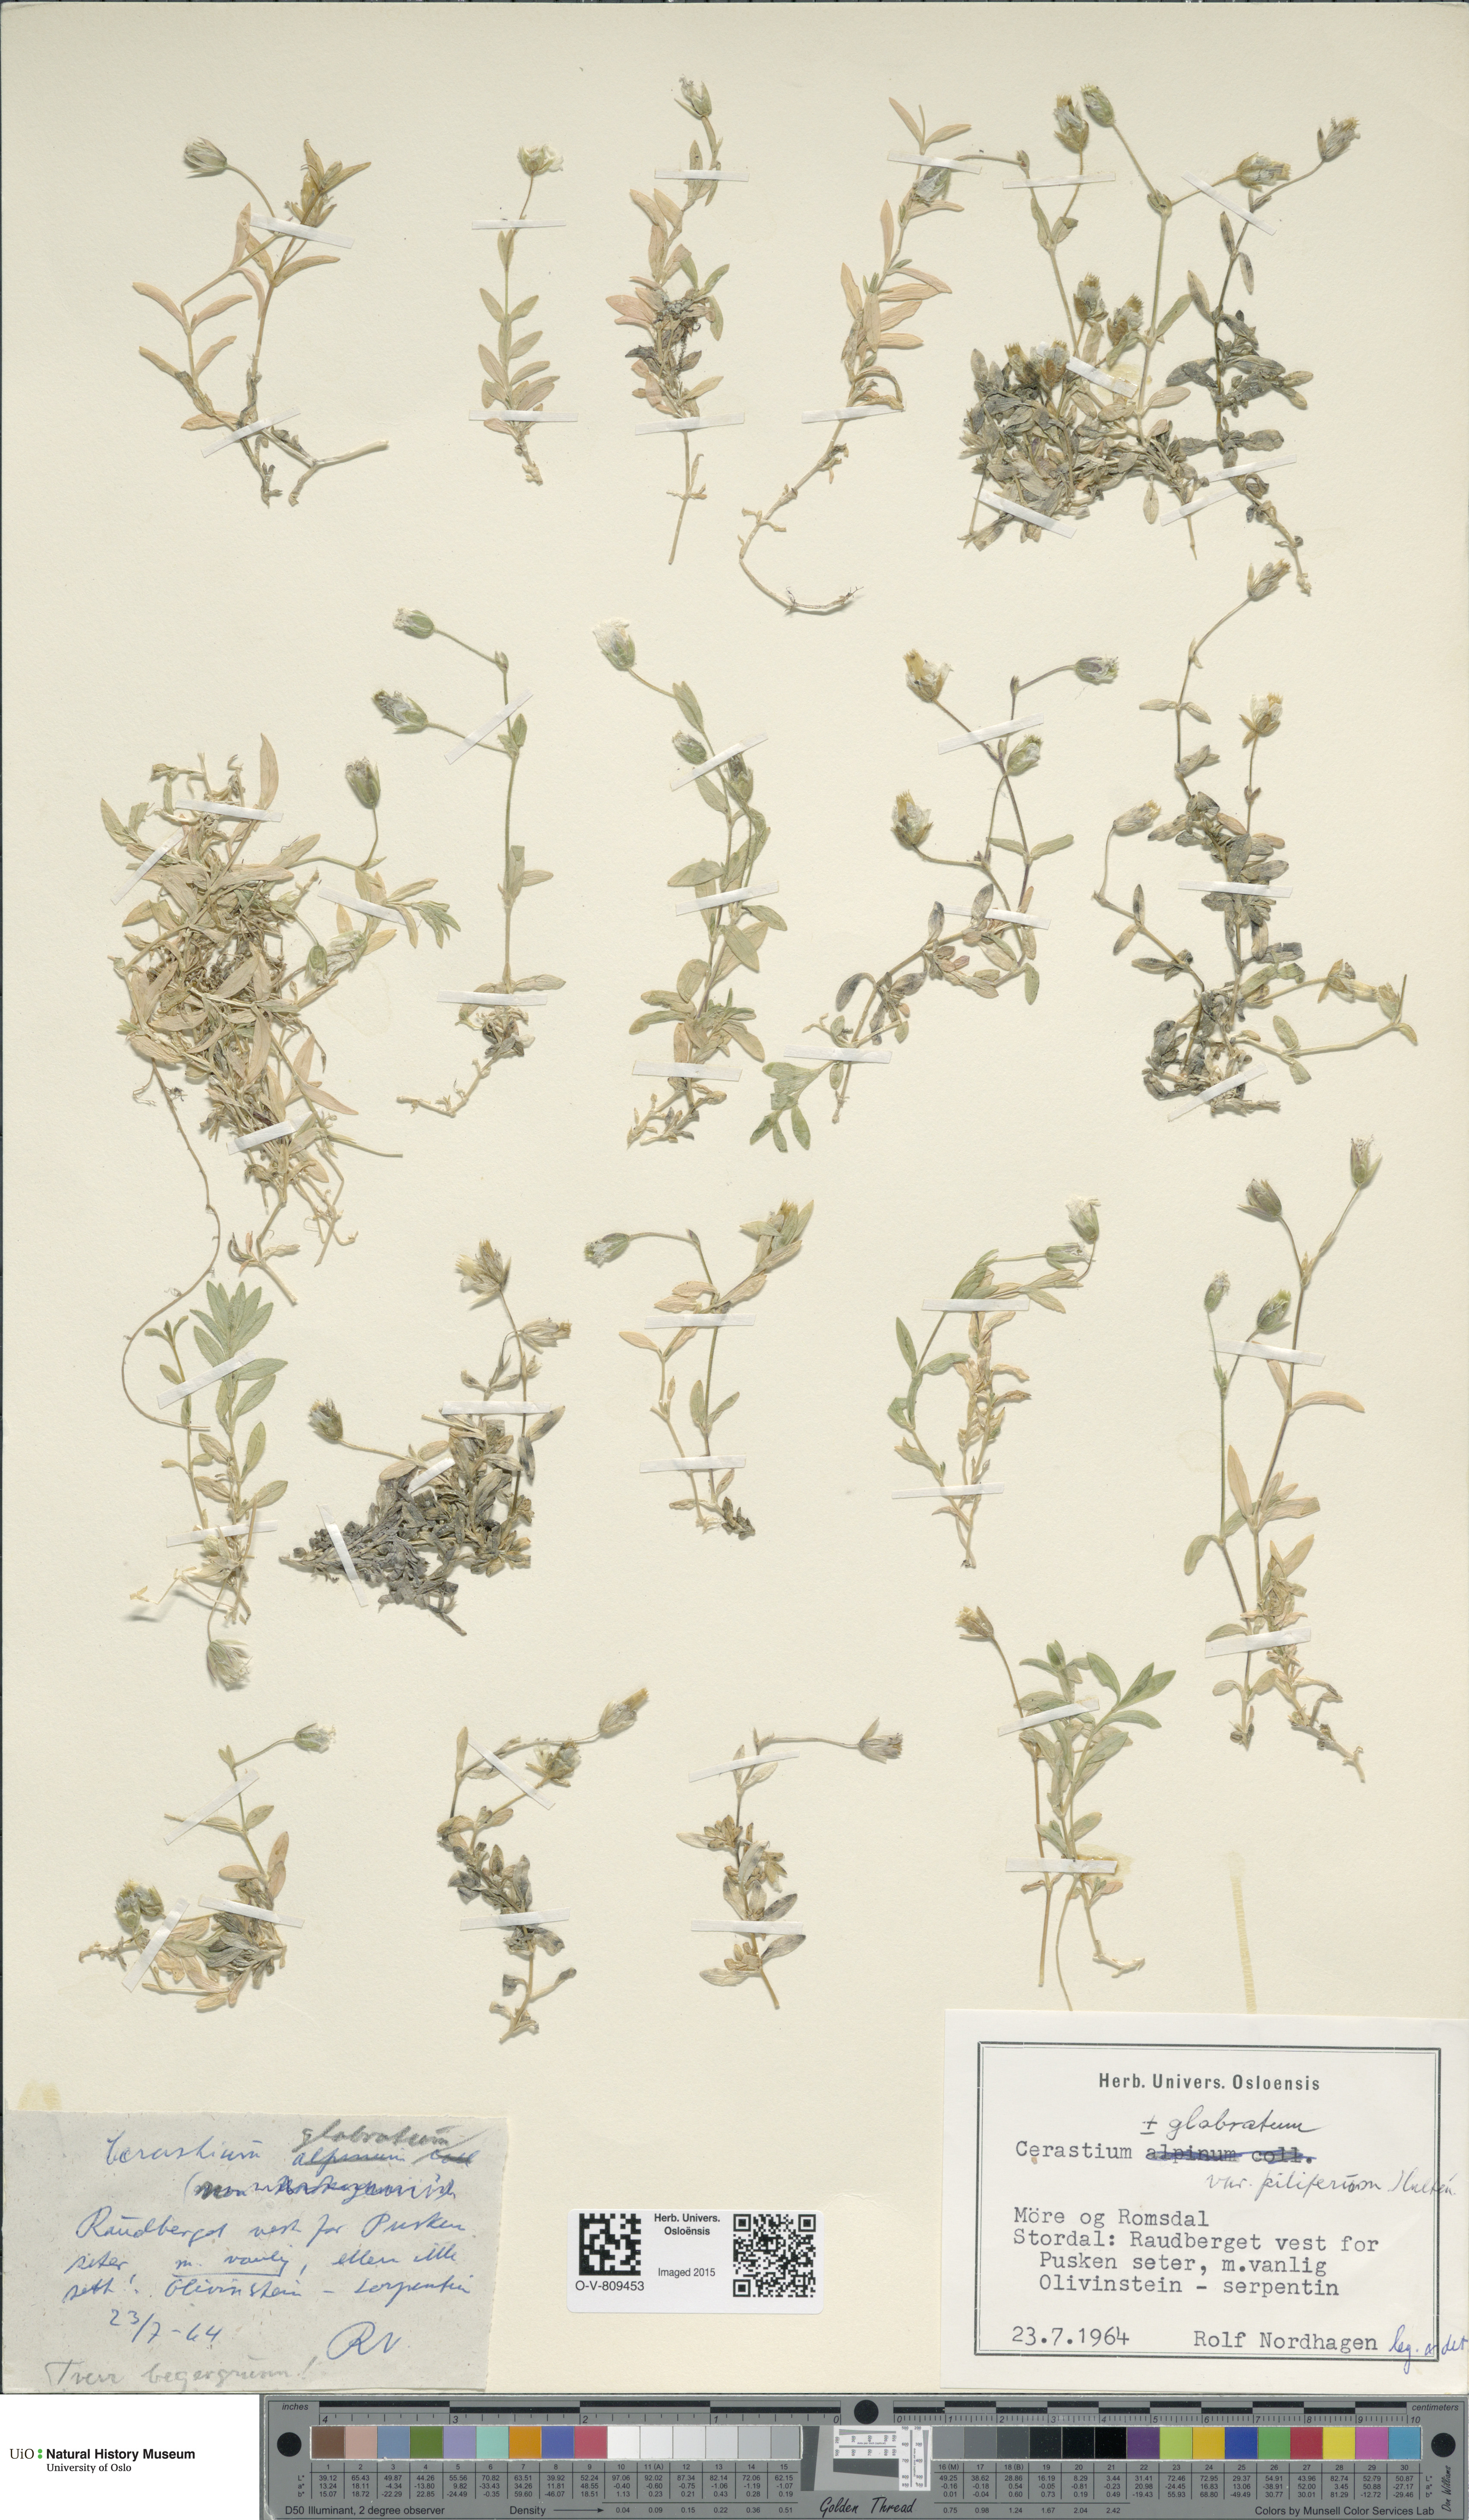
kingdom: Plantae
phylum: Tracheophyta
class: Magnoliopsida
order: Caryophyllales
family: Caryophyllaceae
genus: Cerastium
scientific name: Cerastium alpinum
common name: Alpine mouse-ear
